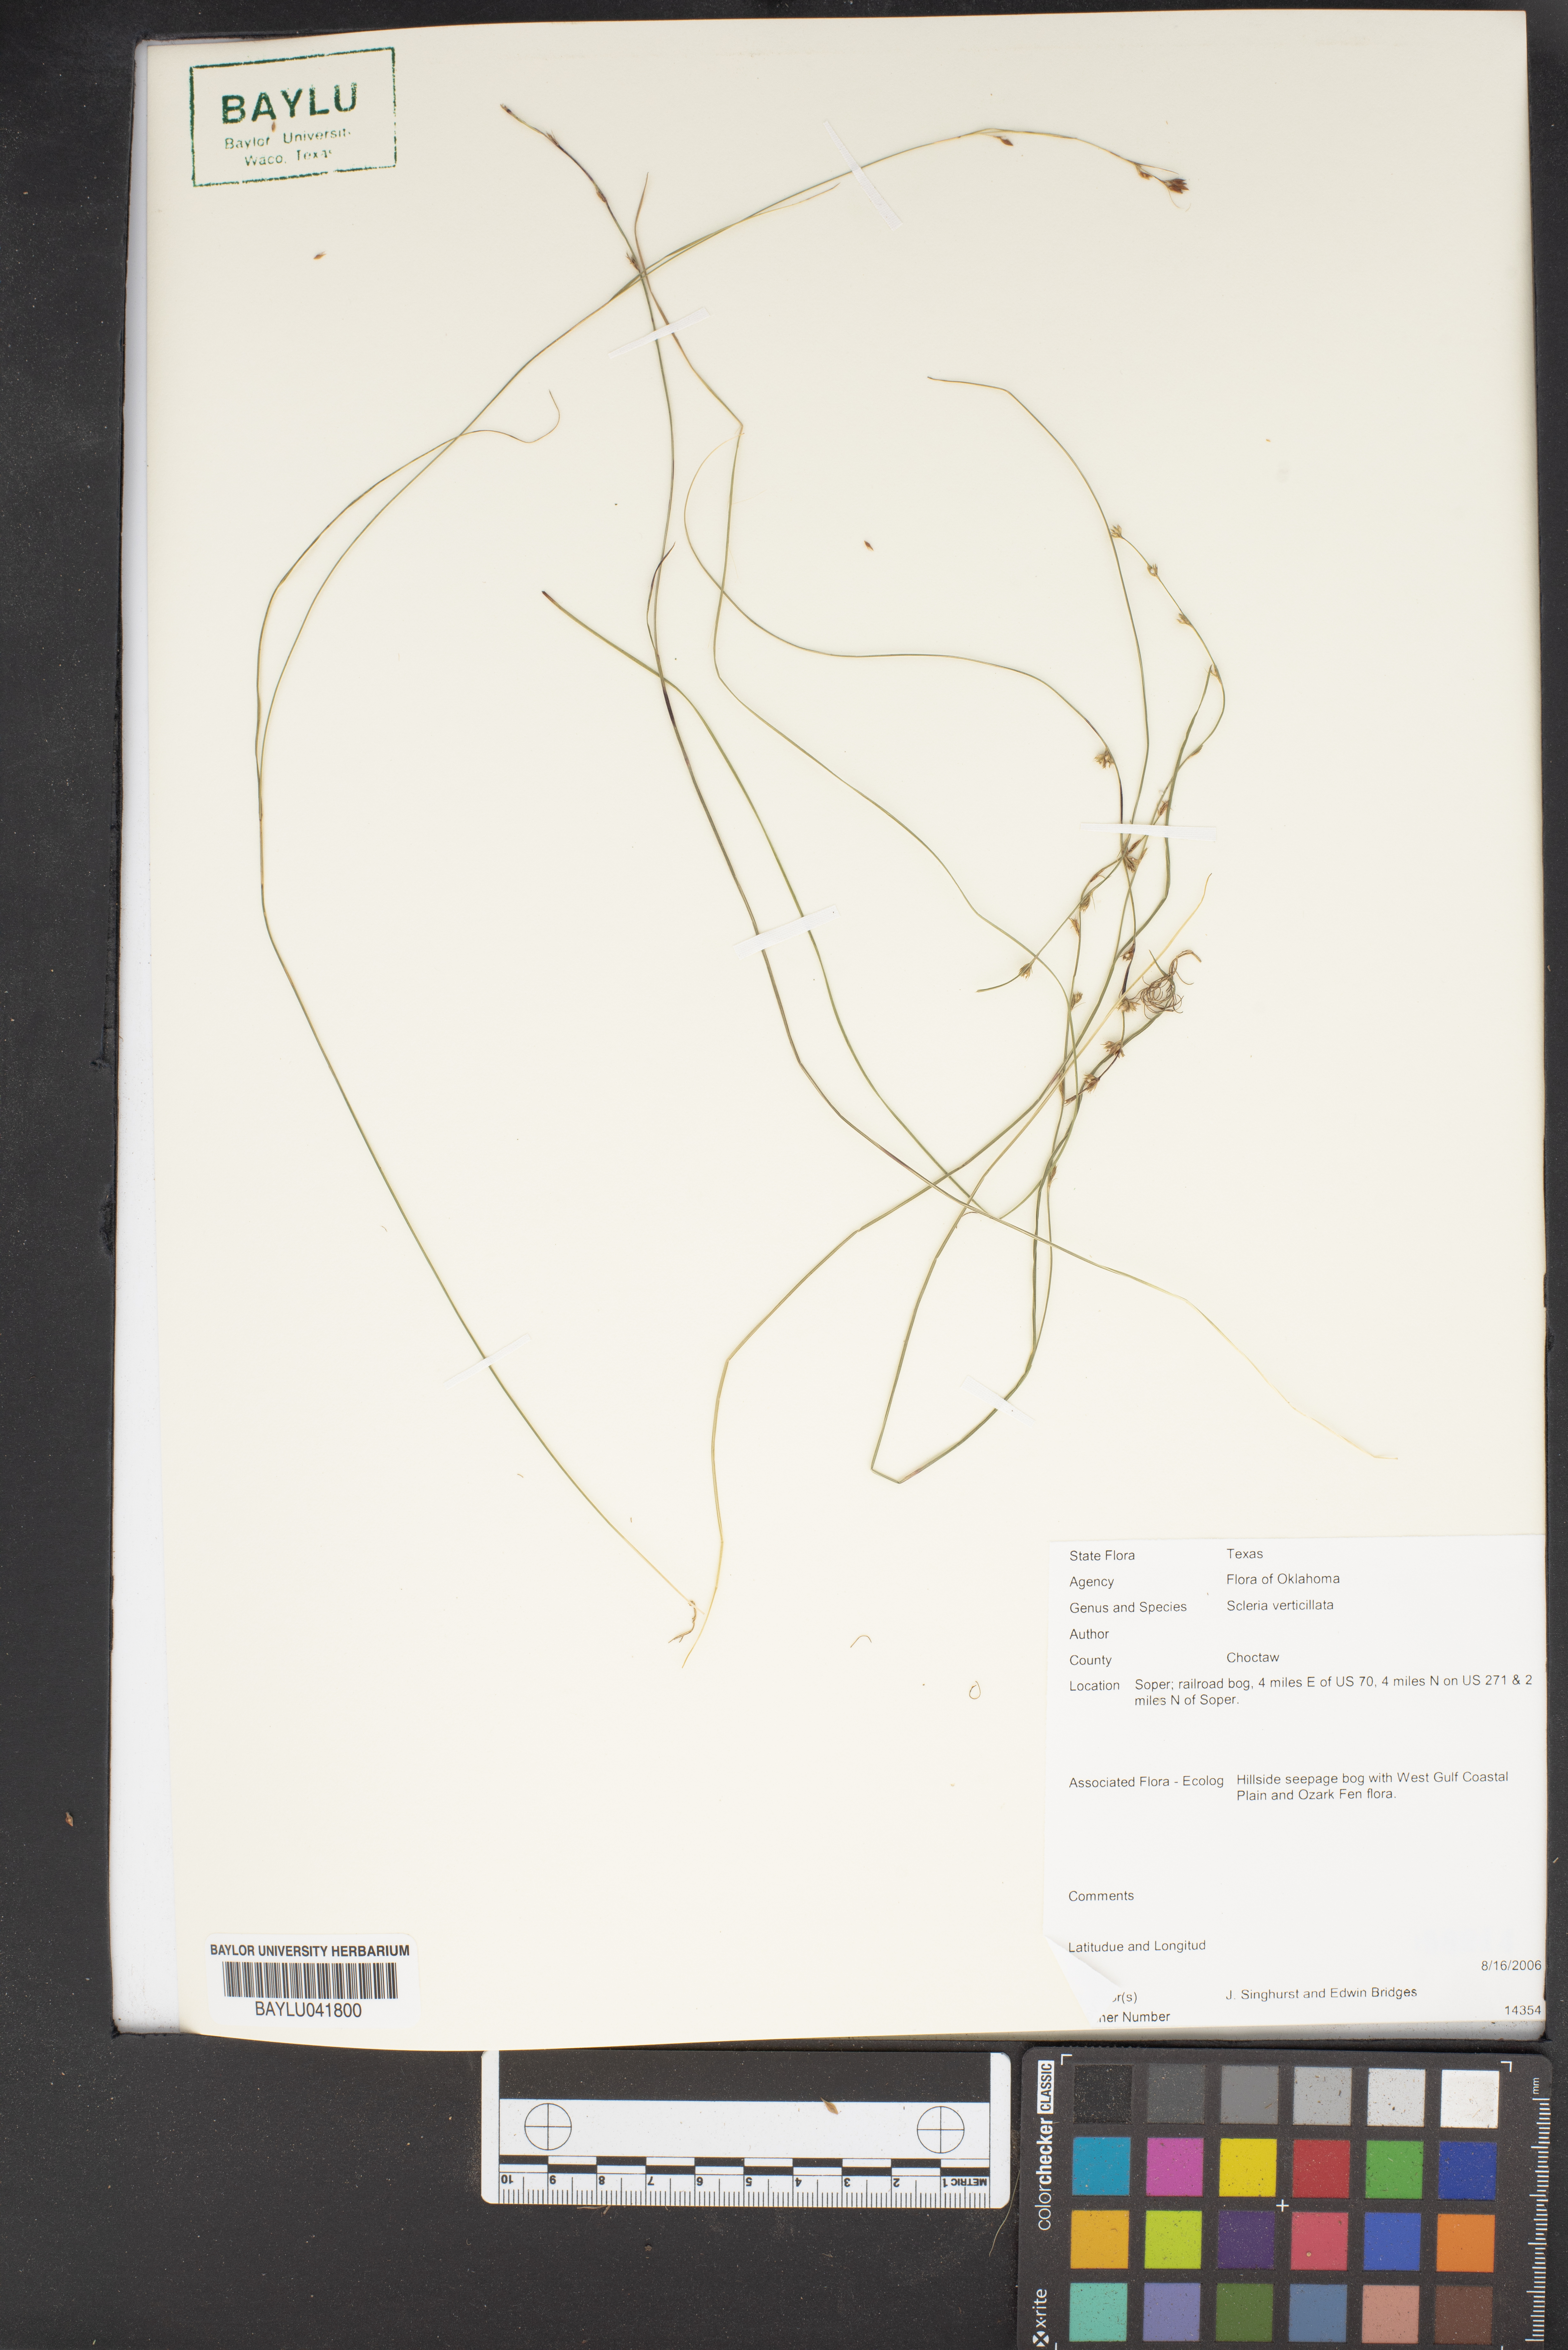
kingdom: Plantae
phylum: Tracheophyta
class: Liliopsida
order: Poales
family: Cyperaceae
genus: Scleria
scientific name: Scleria verticillata
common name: Low nutrush
